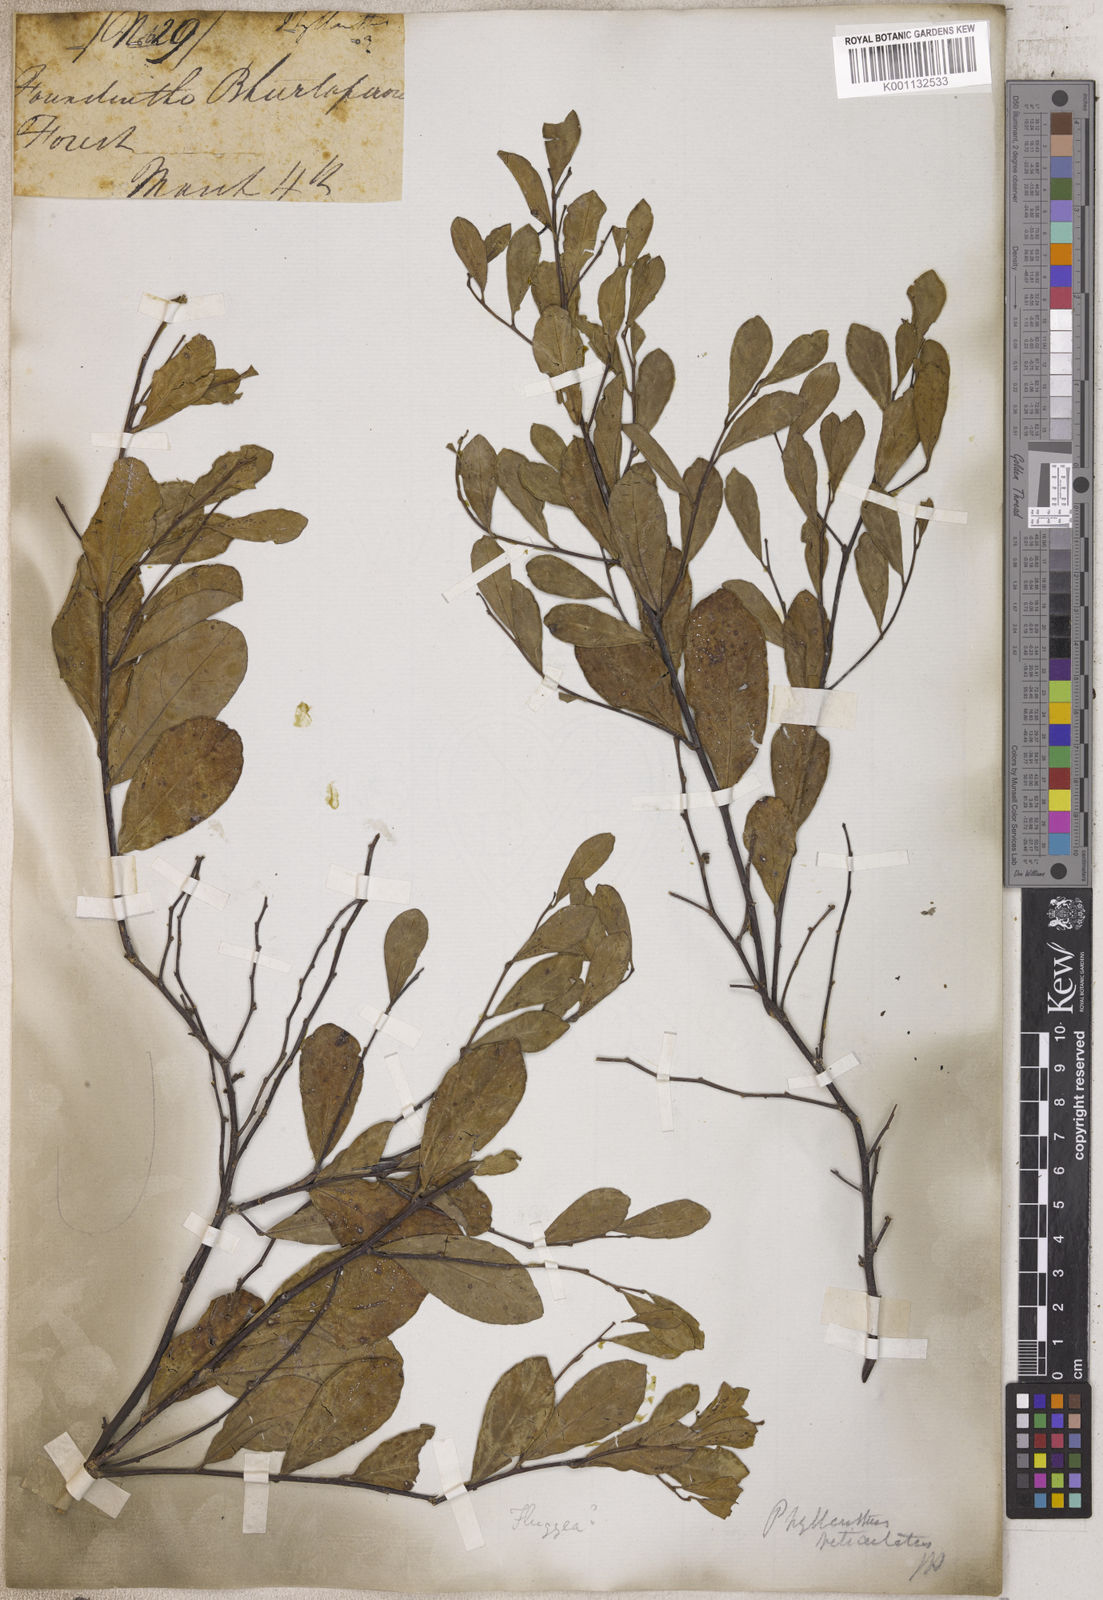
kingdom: Plantae
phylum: Tracheophyta
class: Magnoliopsida
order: Malpighiales
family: Phyllanthaceae
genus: Phyllanthus
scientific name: Phyllanthus
